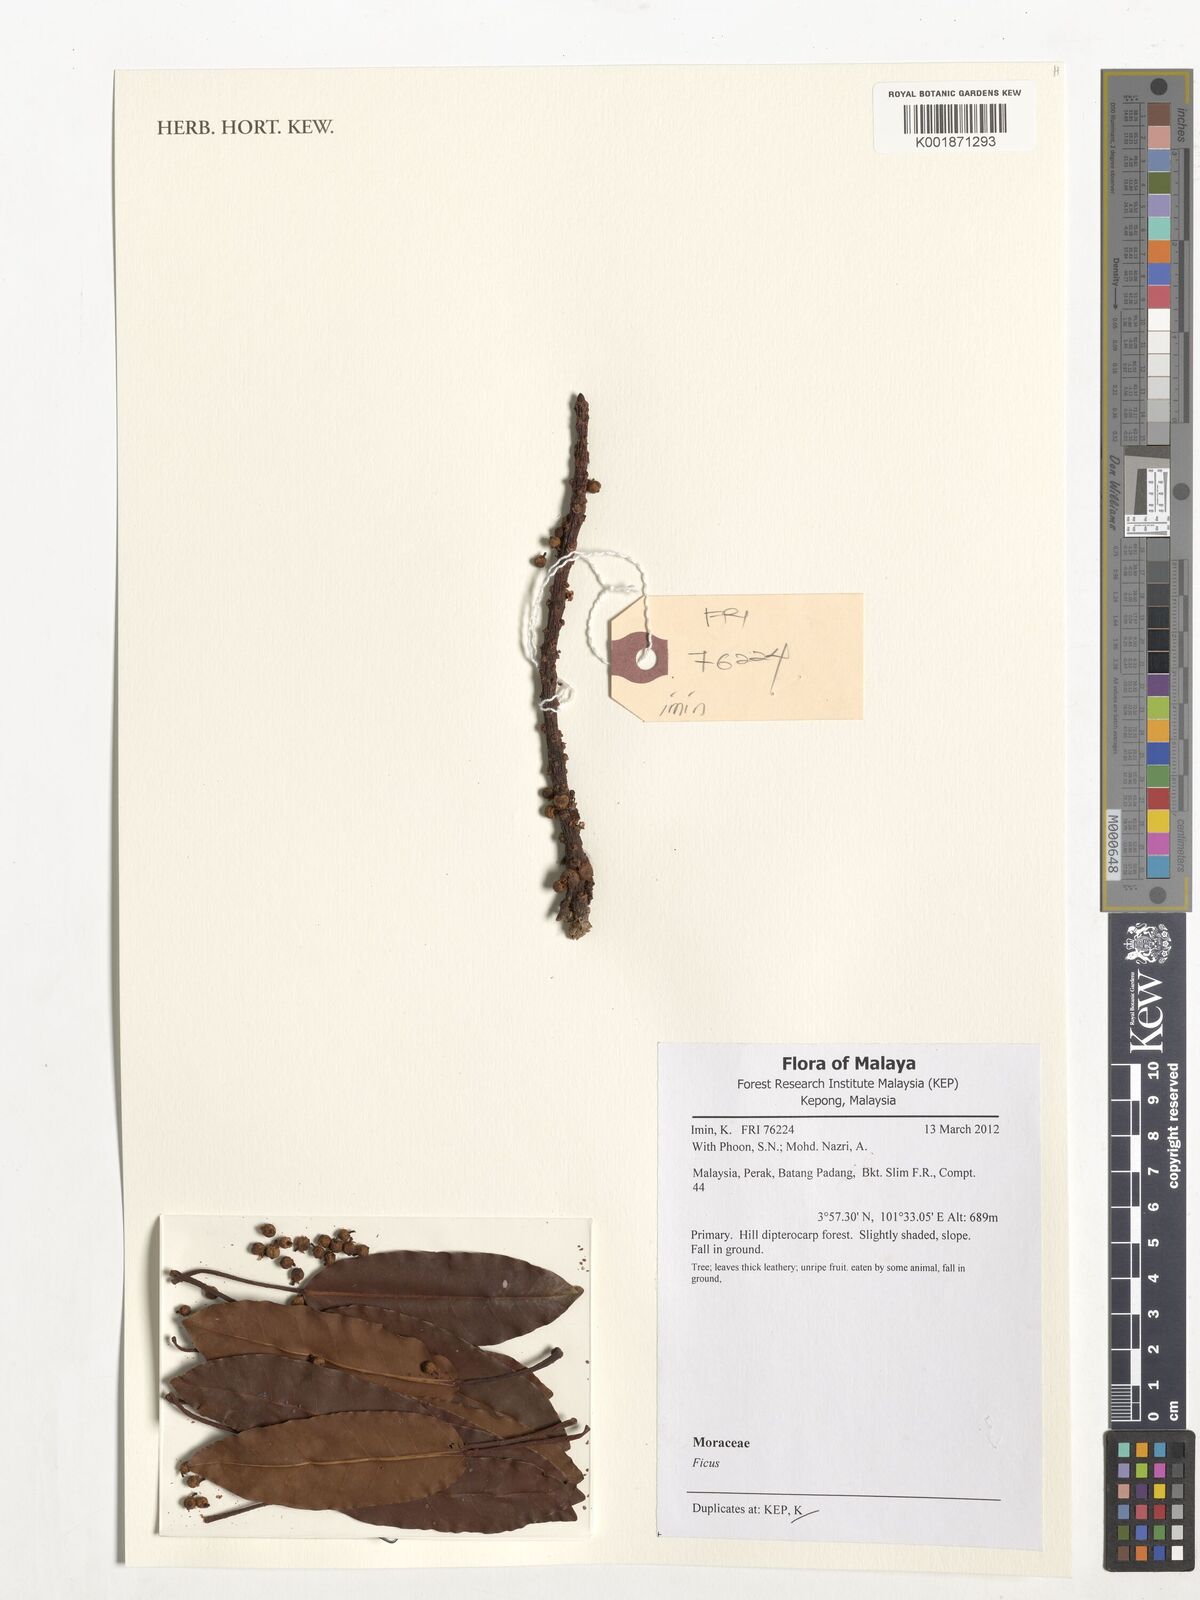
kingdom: Plantae
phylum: Tracheophyta
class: Magnoliopsida
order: Rosales
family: Moraceae
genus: Ficus
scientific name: Ficus
